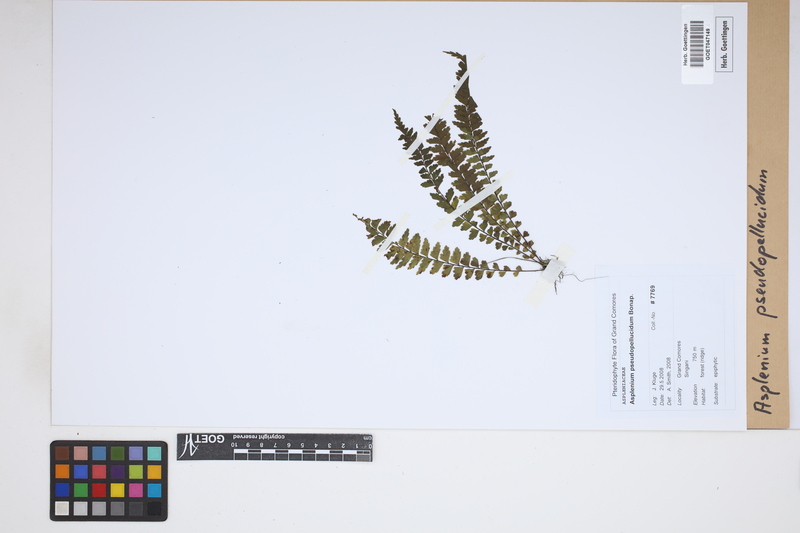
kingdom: Plantae
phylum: Tracheophyta
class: Polypodiopsida
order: Polypodiales
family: Aspleniaceae
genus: Asplenium
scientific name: Asplenium crinulosum
